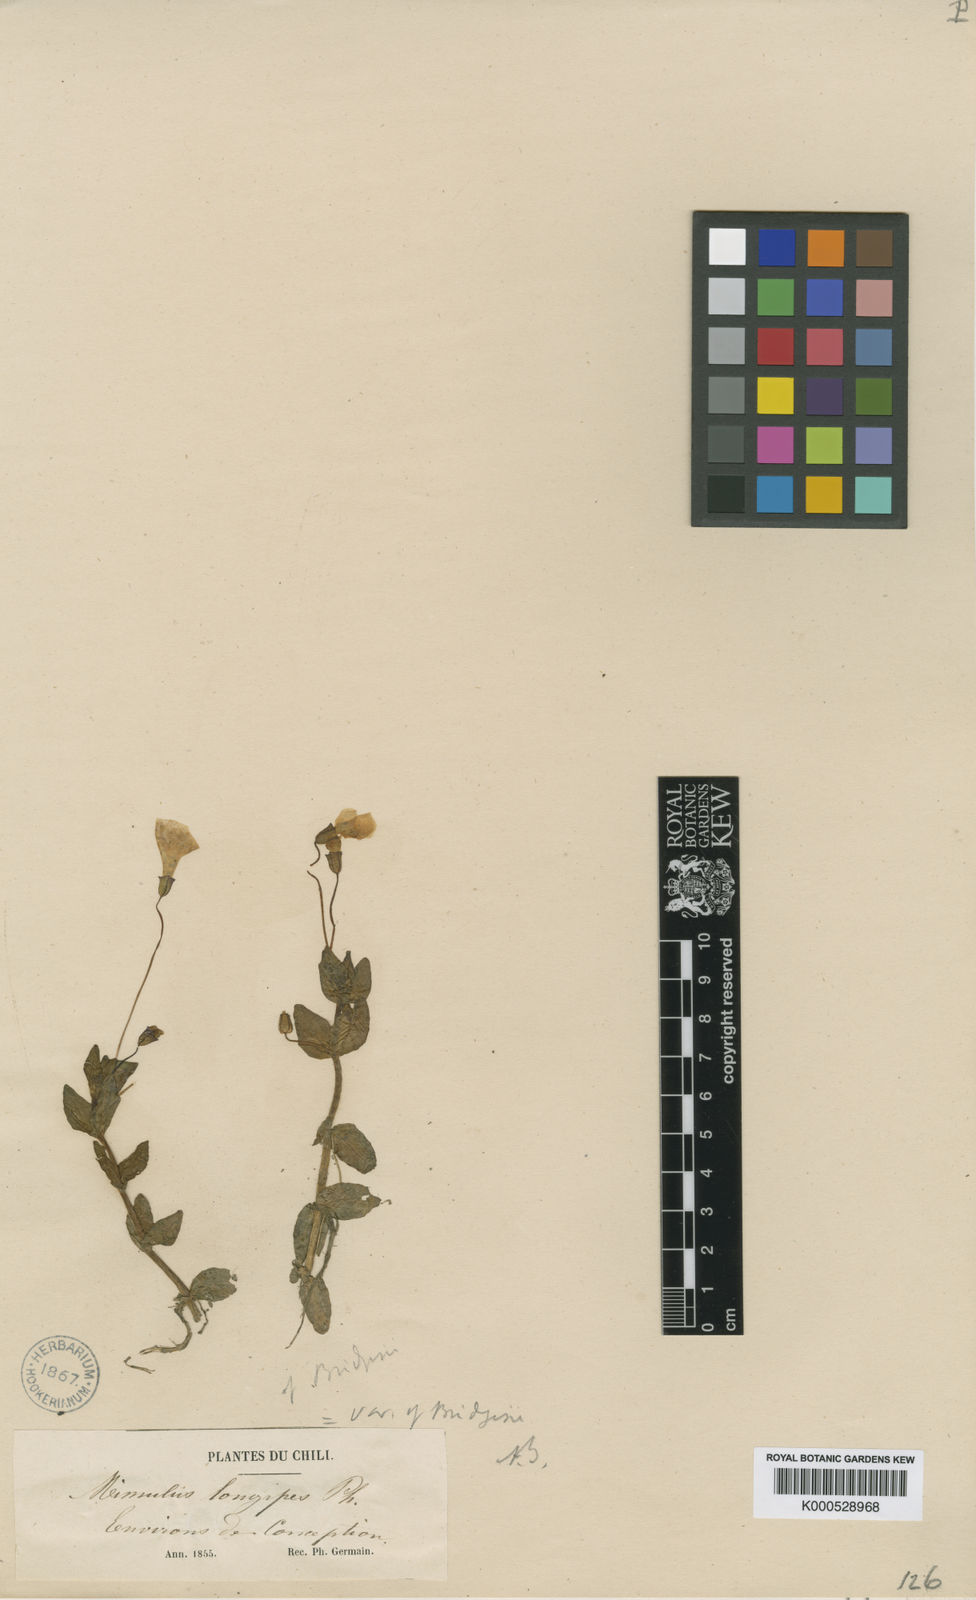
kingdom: Plantae
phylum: Tracheophyta
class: Magnoliopsida
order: Lamiales
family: Phrymaceae
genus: Erythranthe
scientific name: Erythranthe bridgesii
